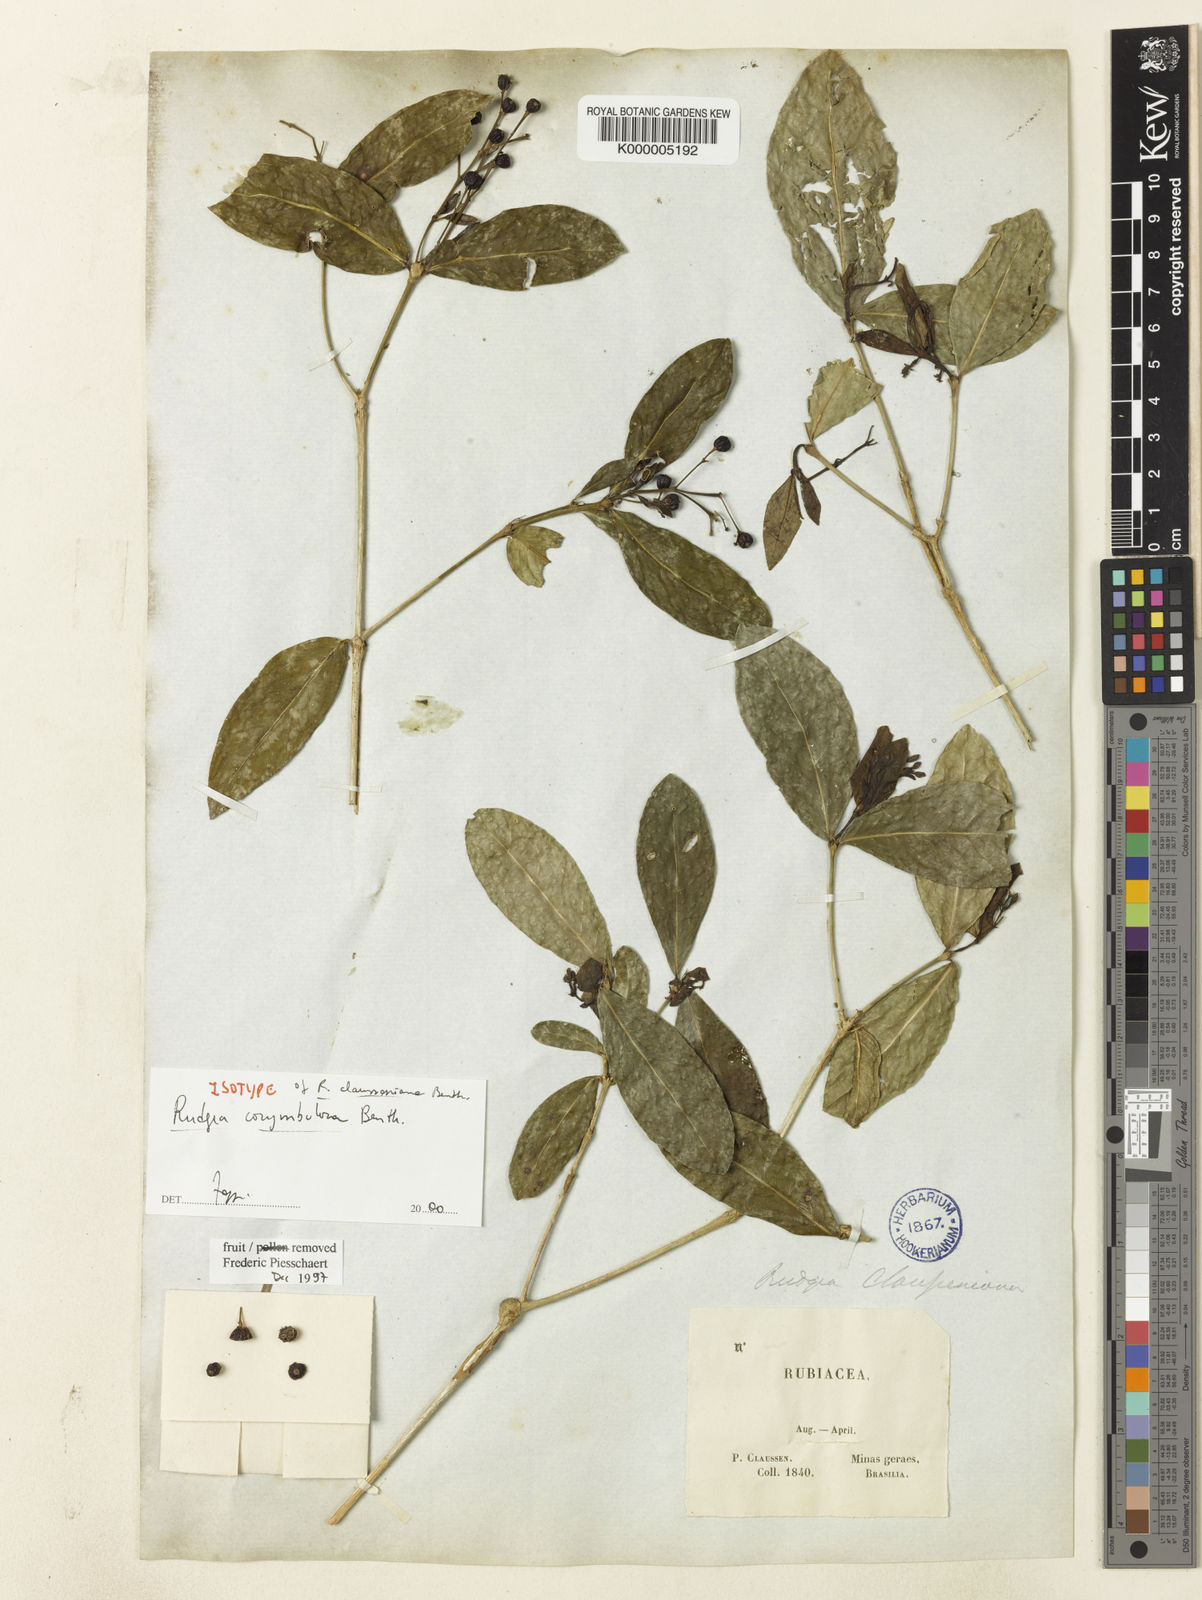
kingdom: Plantae
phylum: Tracheophyta
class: Magnoliopsida
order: Gentianales
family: Rubiaceae
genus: Rudgea
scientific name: Rudgea corymbulosa
